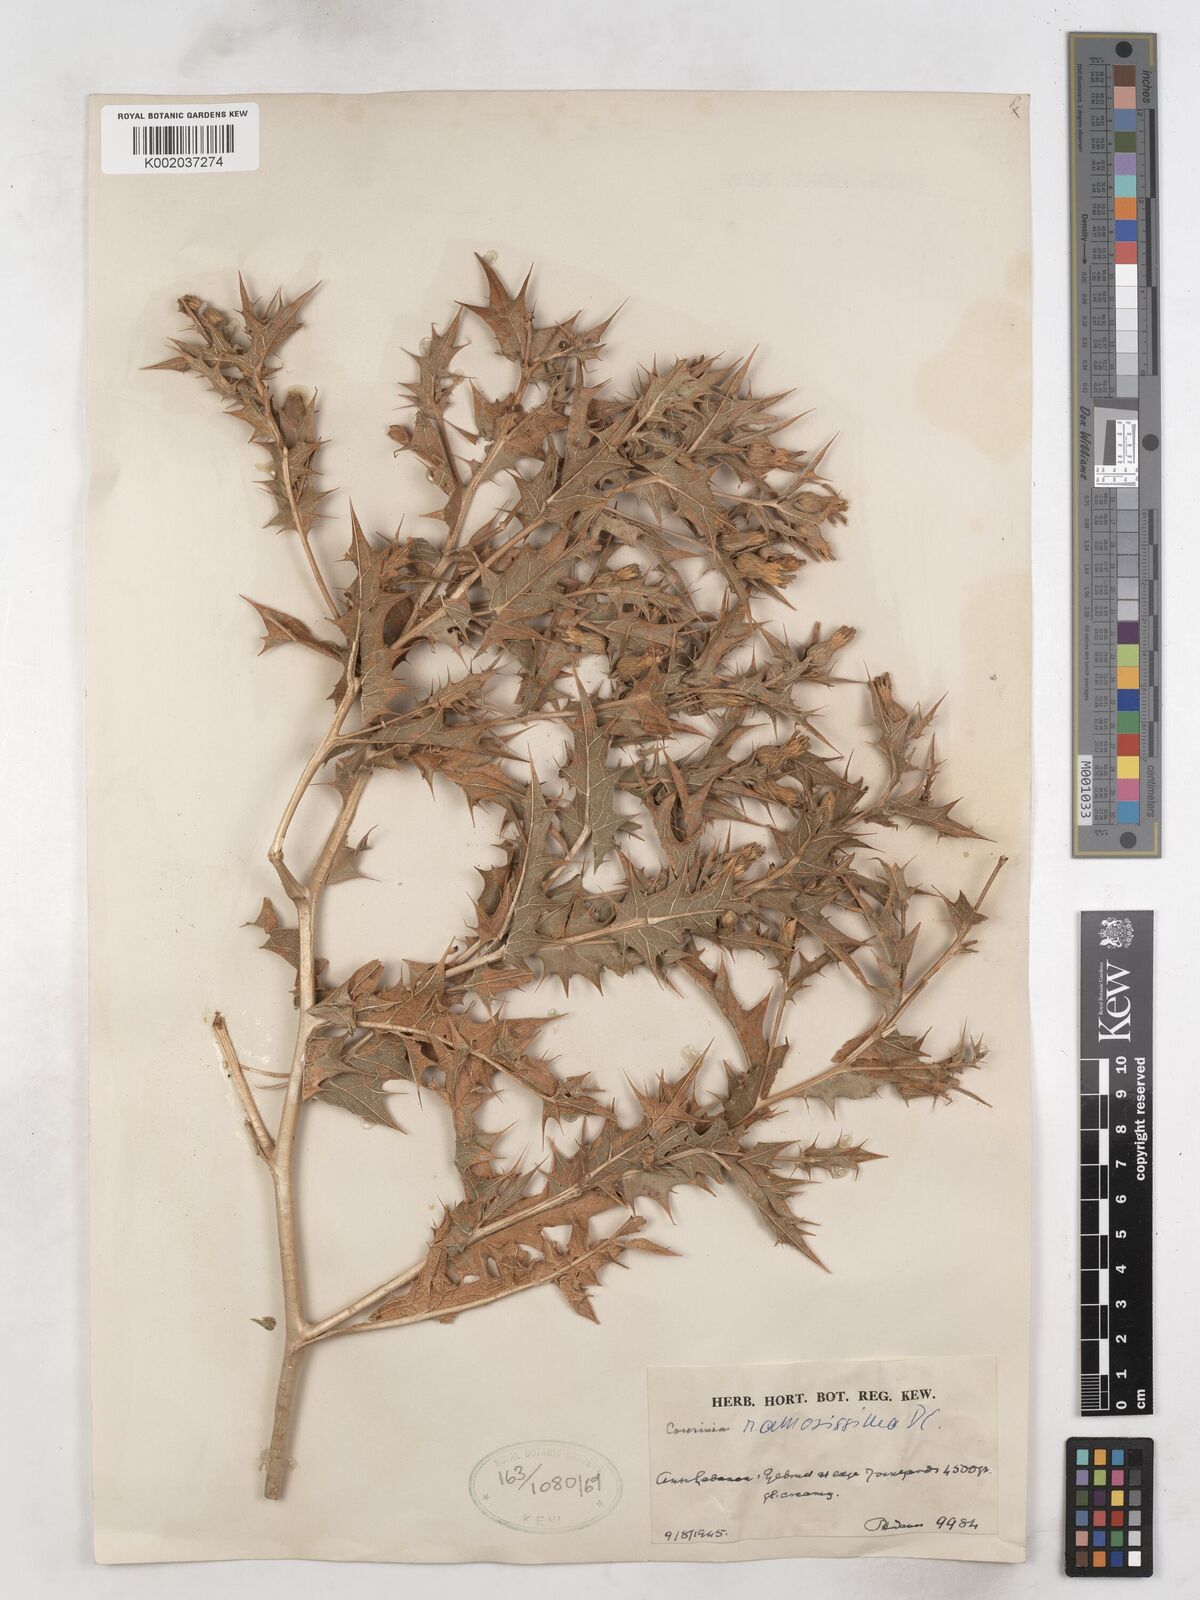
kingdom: Plantae
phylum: Tracheophyta
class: Magnoliopsida
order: Asterales
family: Asteraceae
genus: Cousinia
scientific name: Cousinia ramosissima
